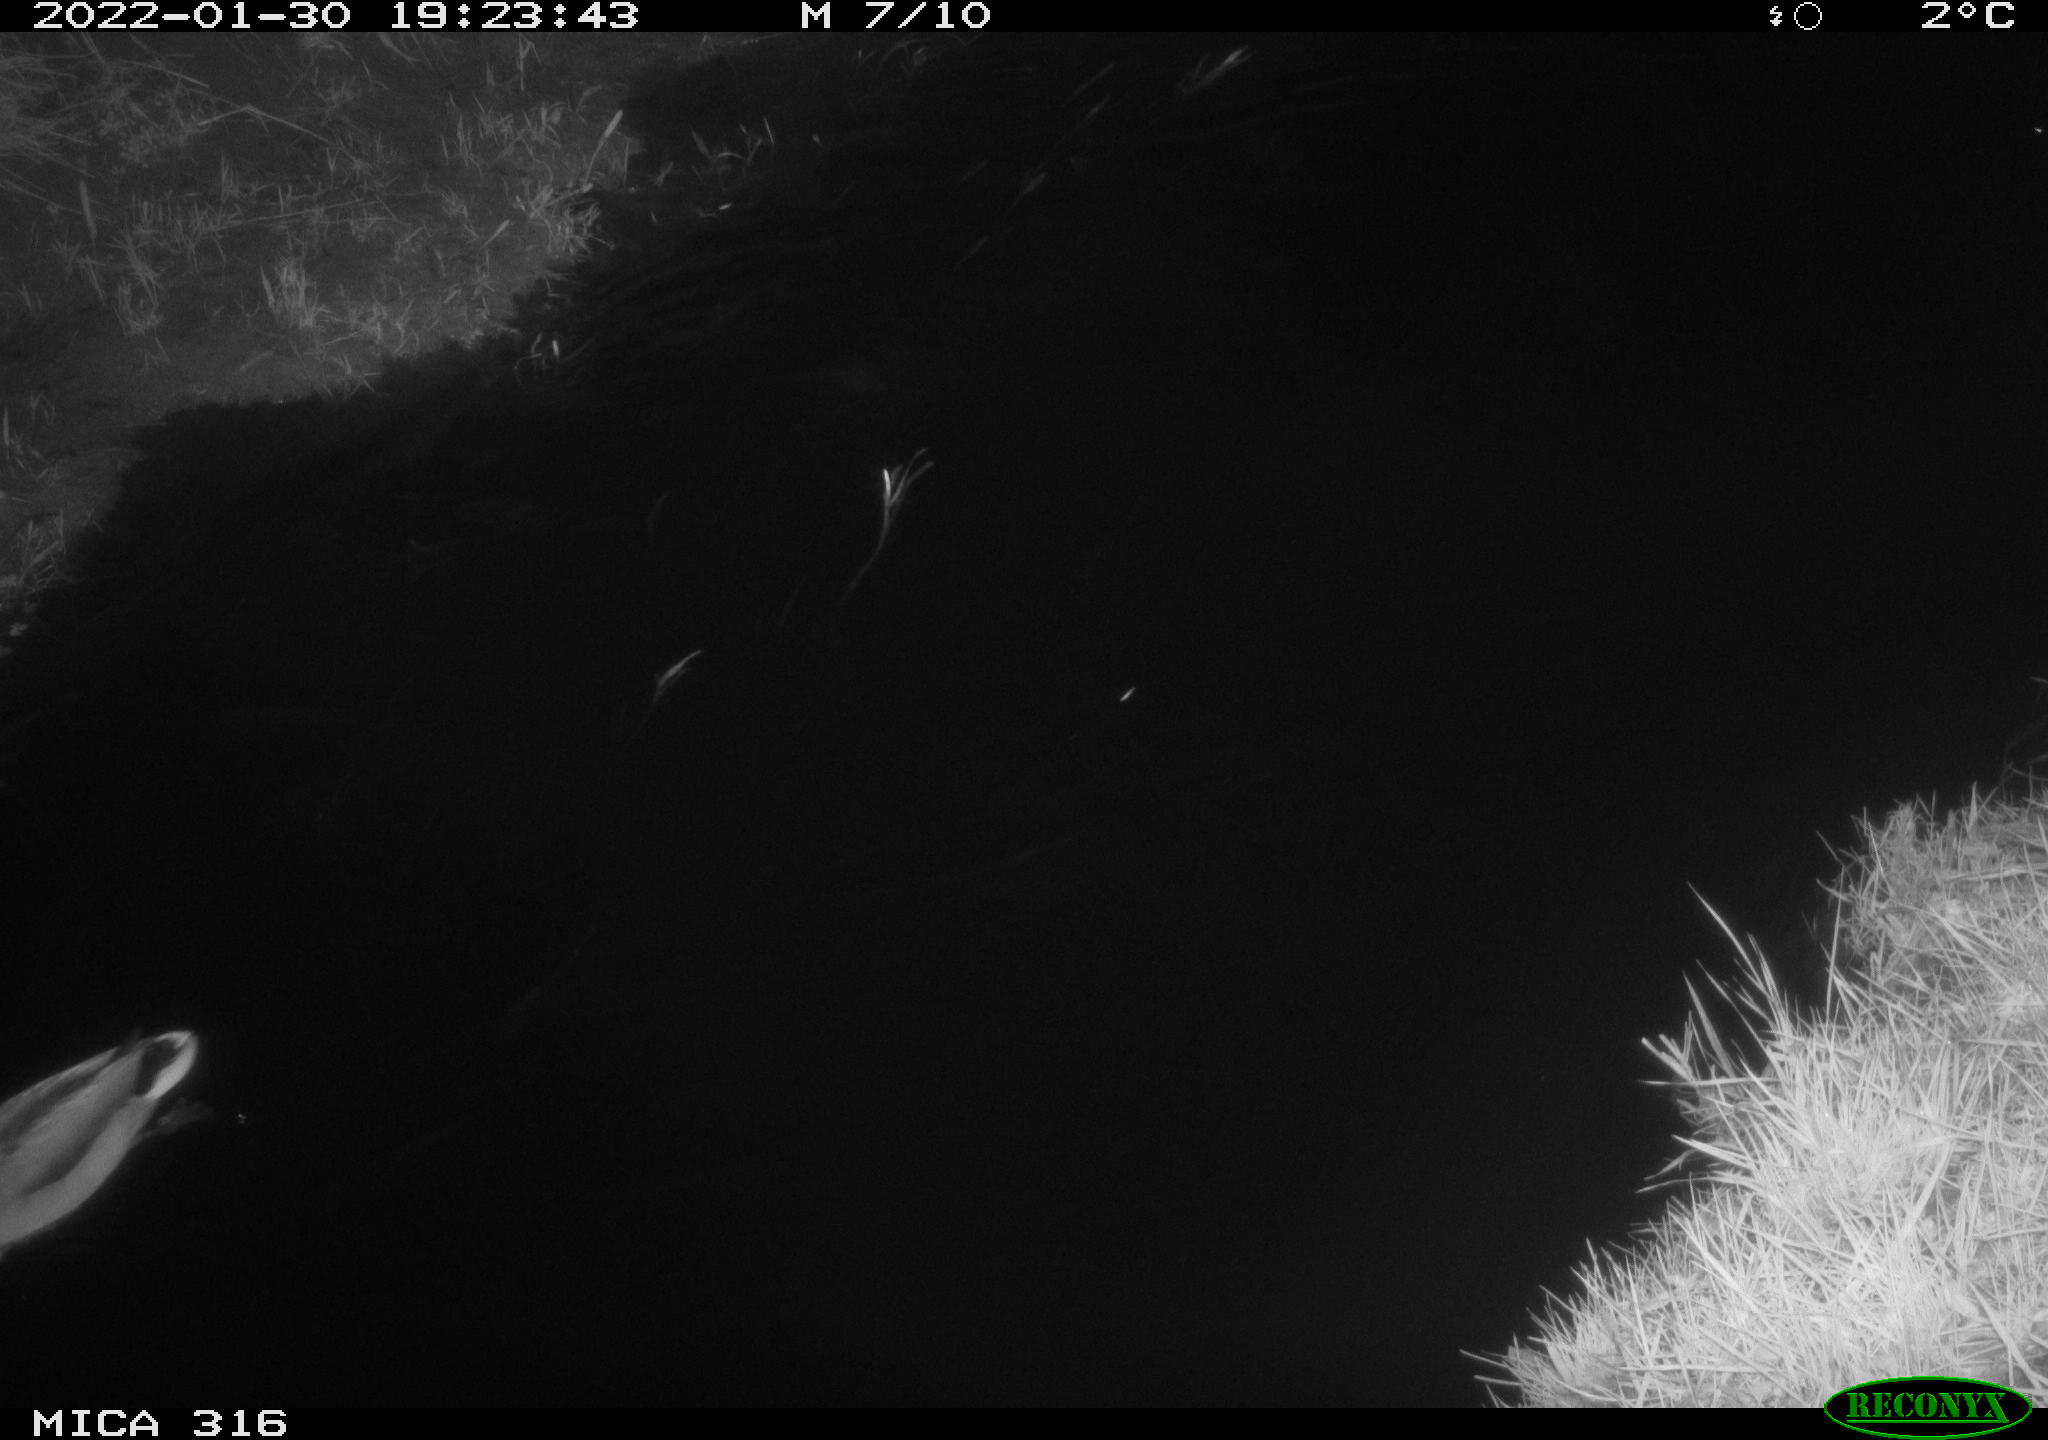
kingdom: Animalia
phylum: Chordata
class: Aves
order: Anseriformes
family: Anatidae
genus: Anas
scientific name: Anas platyrhynchos
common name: Mallard
